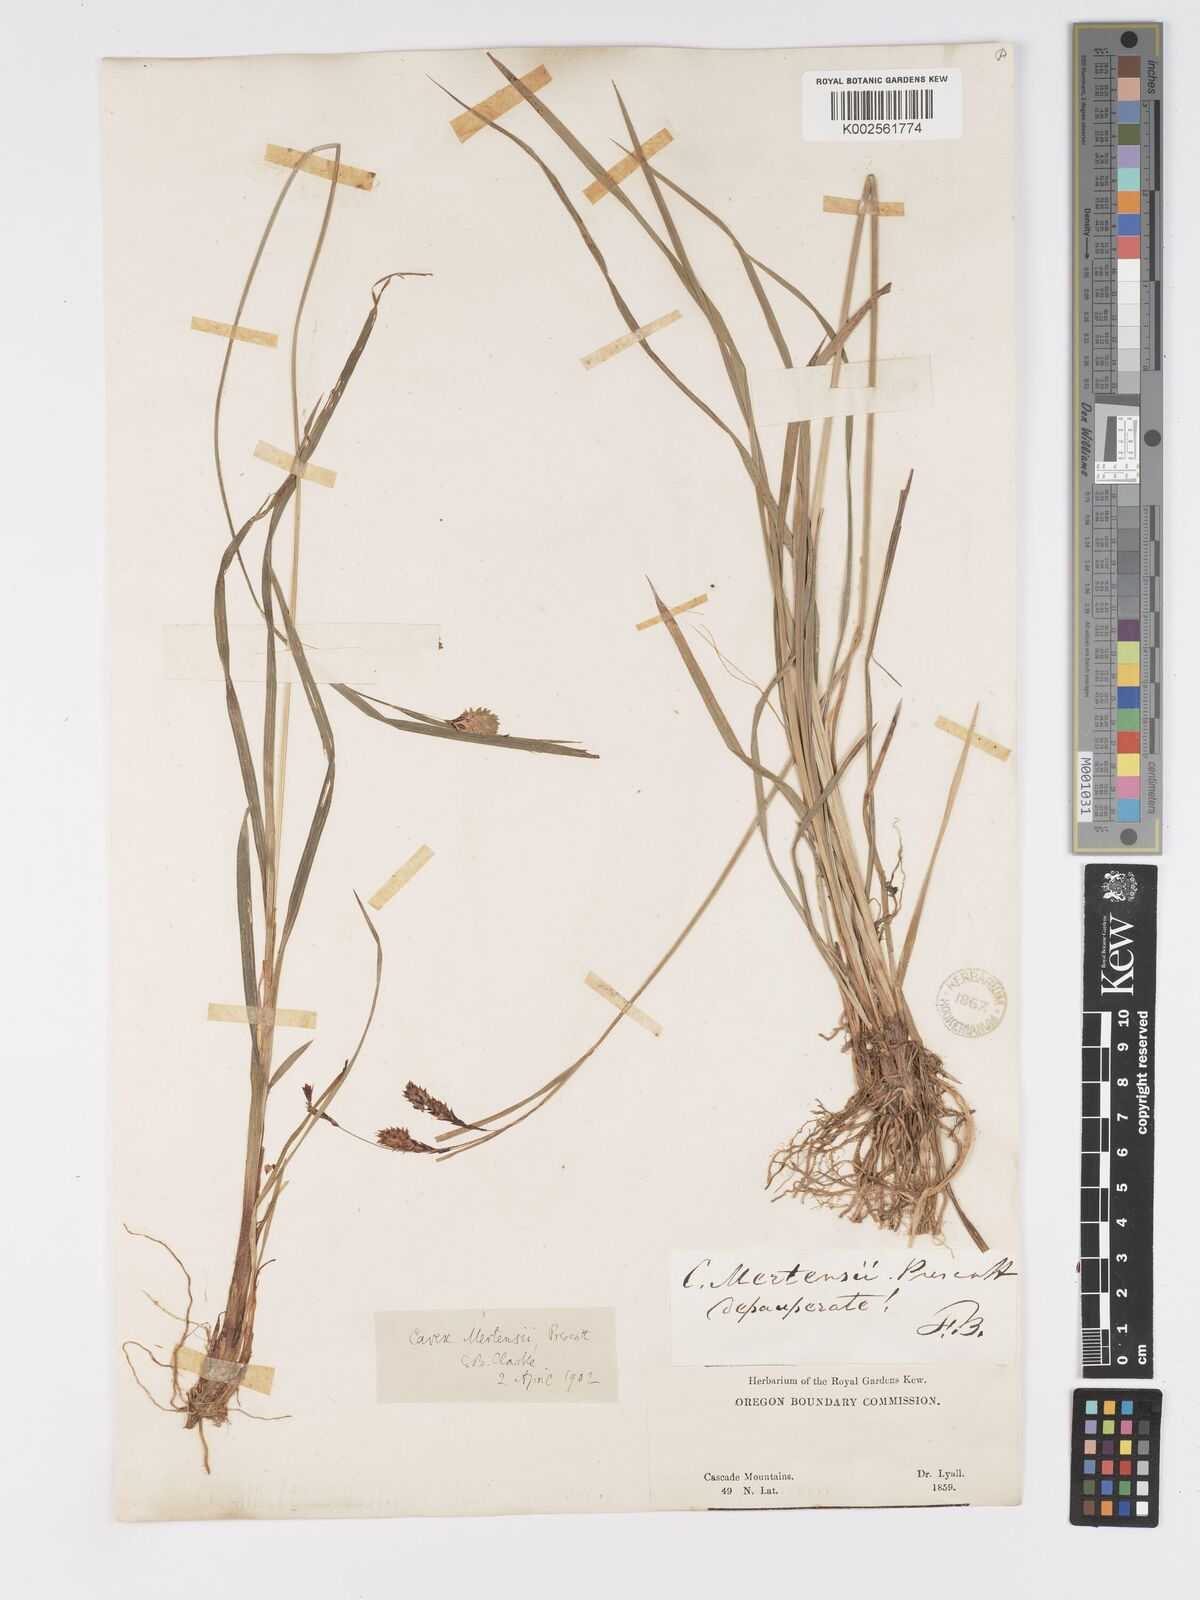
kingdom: Plantae
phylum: Tracheophyta
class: Liliopsida
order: Poales
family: Cyperaceae
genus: Carex
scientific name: Carex mertensii
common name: Mertens' sedge
